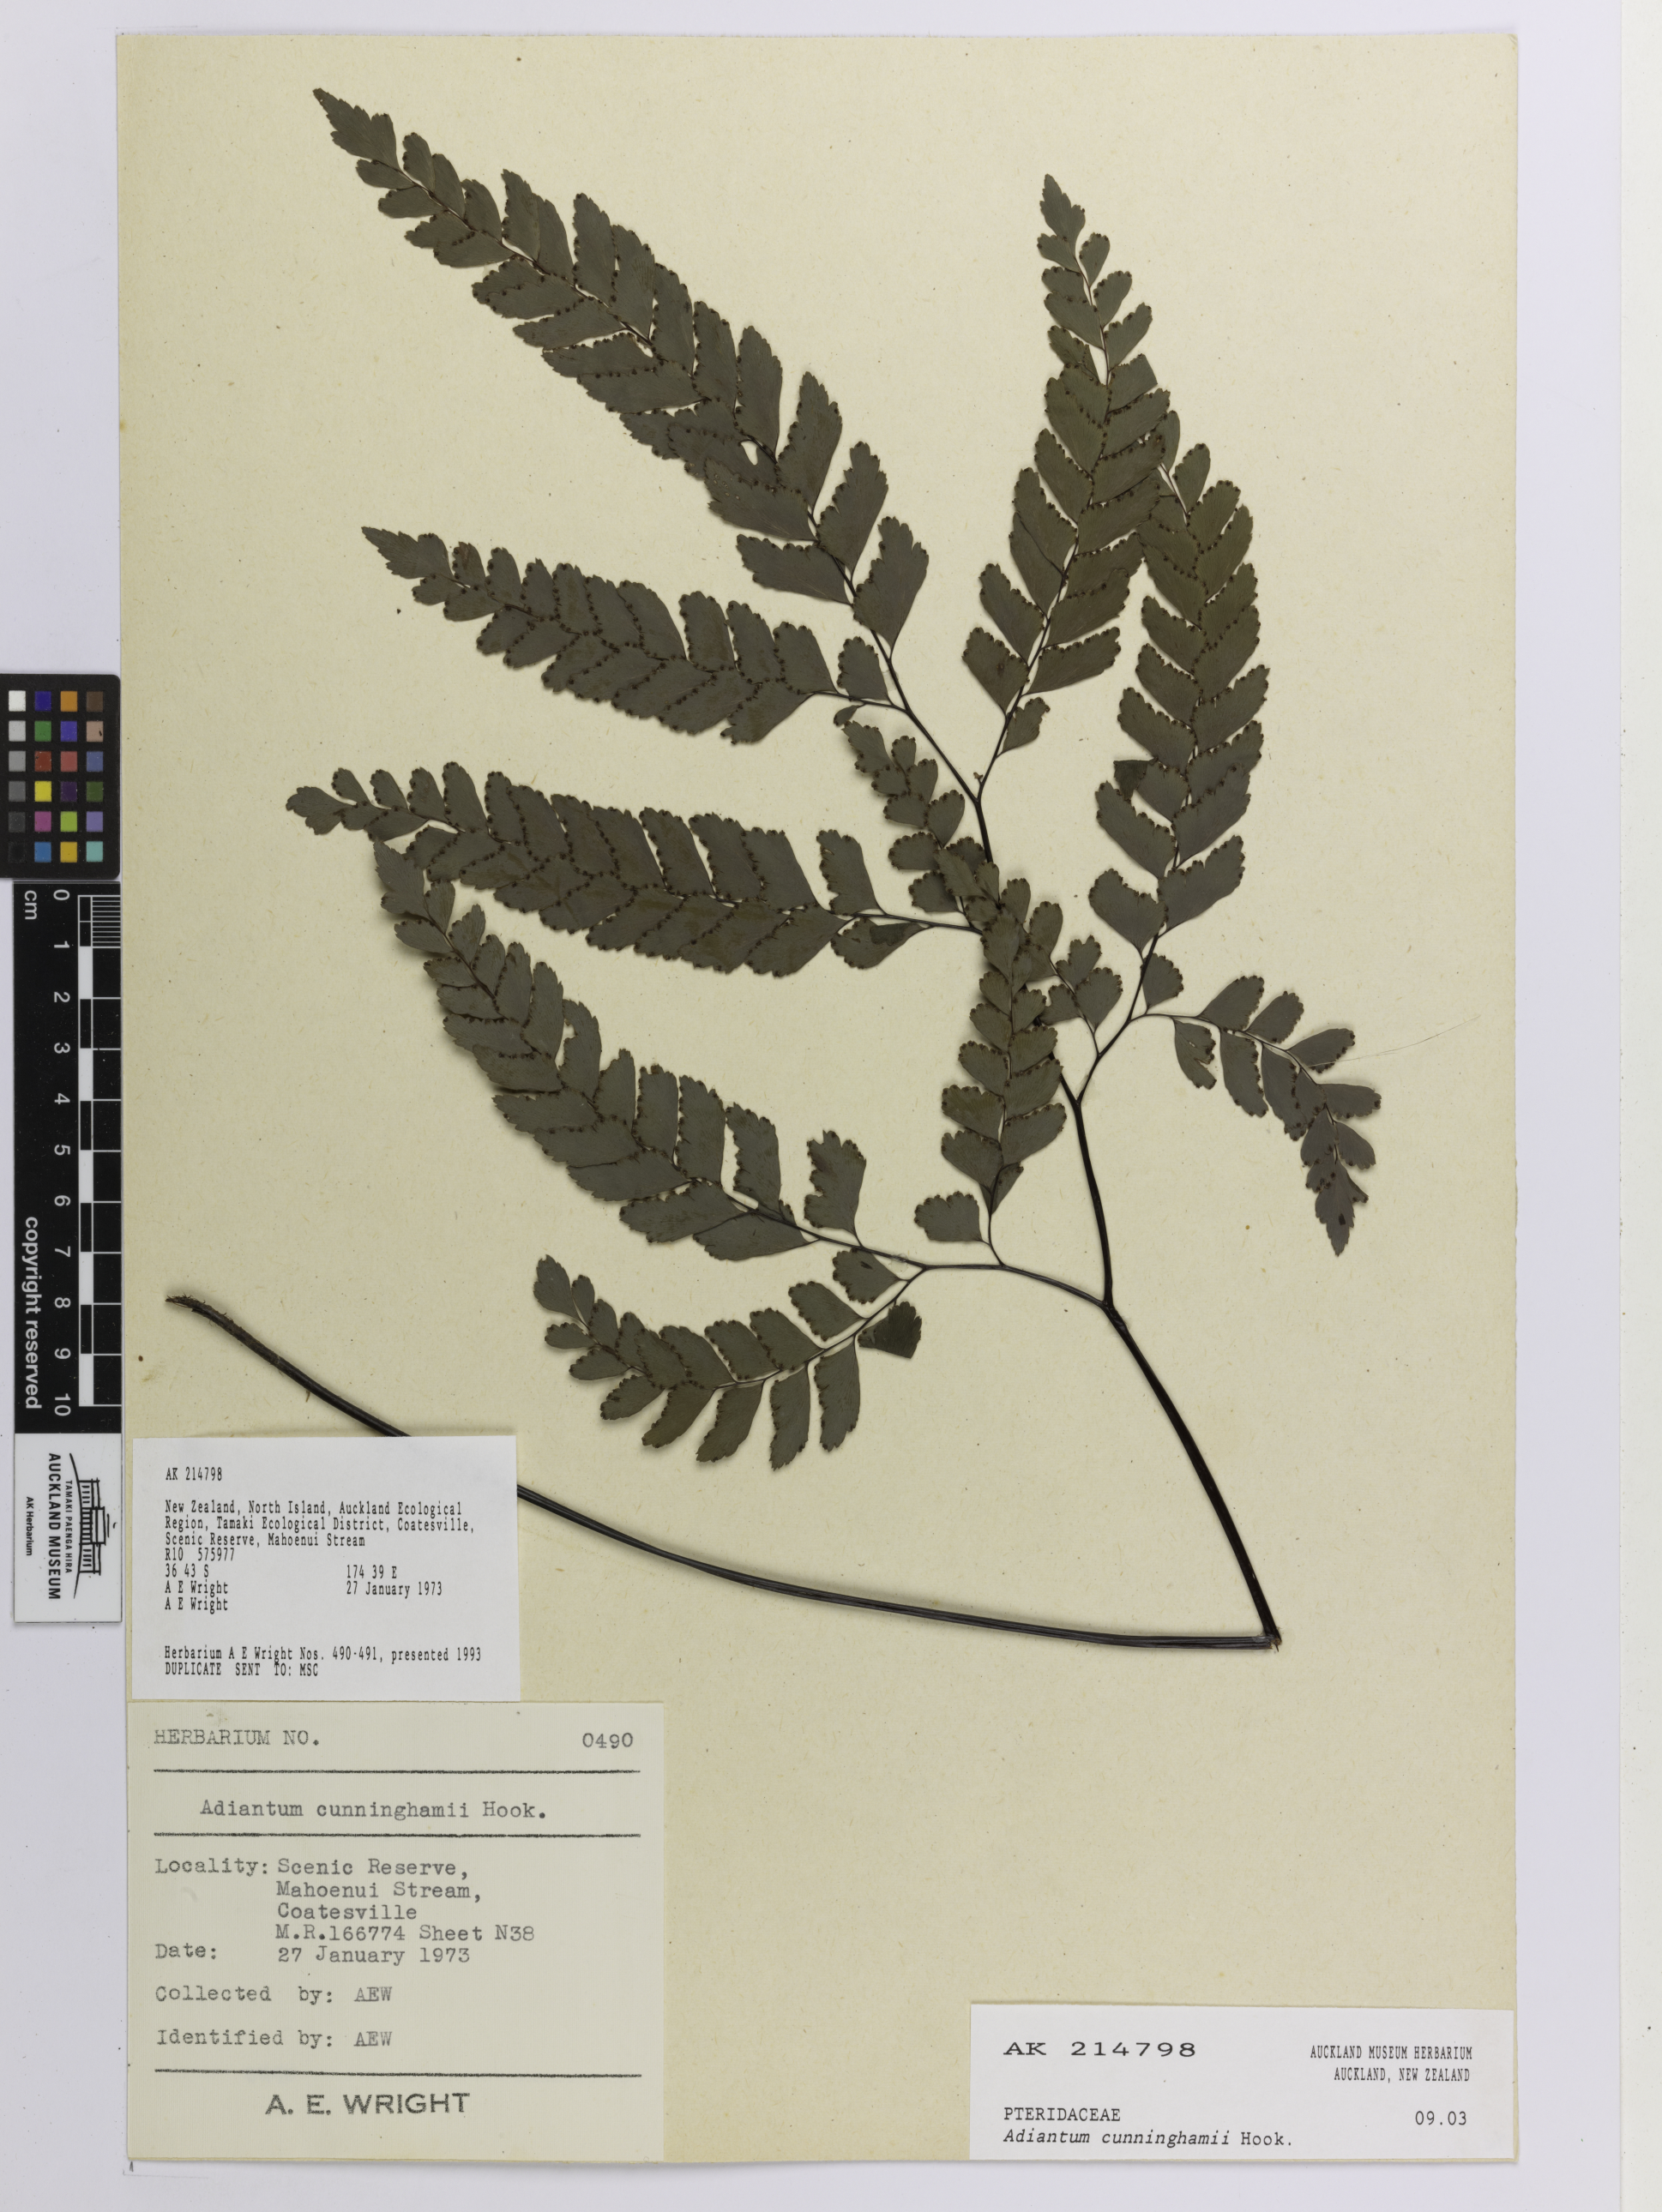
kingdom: Plantae
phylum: Tracheophyta
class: Polypodiopsida
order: Polypodiales
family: Pteridaceae
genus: Adiantum
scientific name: Adiantum cunninghamii
